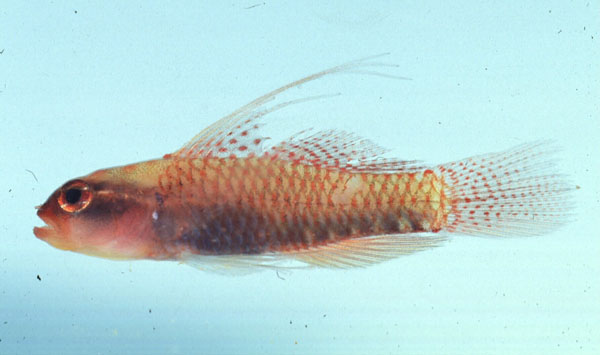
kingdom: Animalia
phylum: Chordata
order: Perciformes
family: Gobiidae
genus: Eviota
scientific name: Eviota prasites
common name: Hairfin eviota
